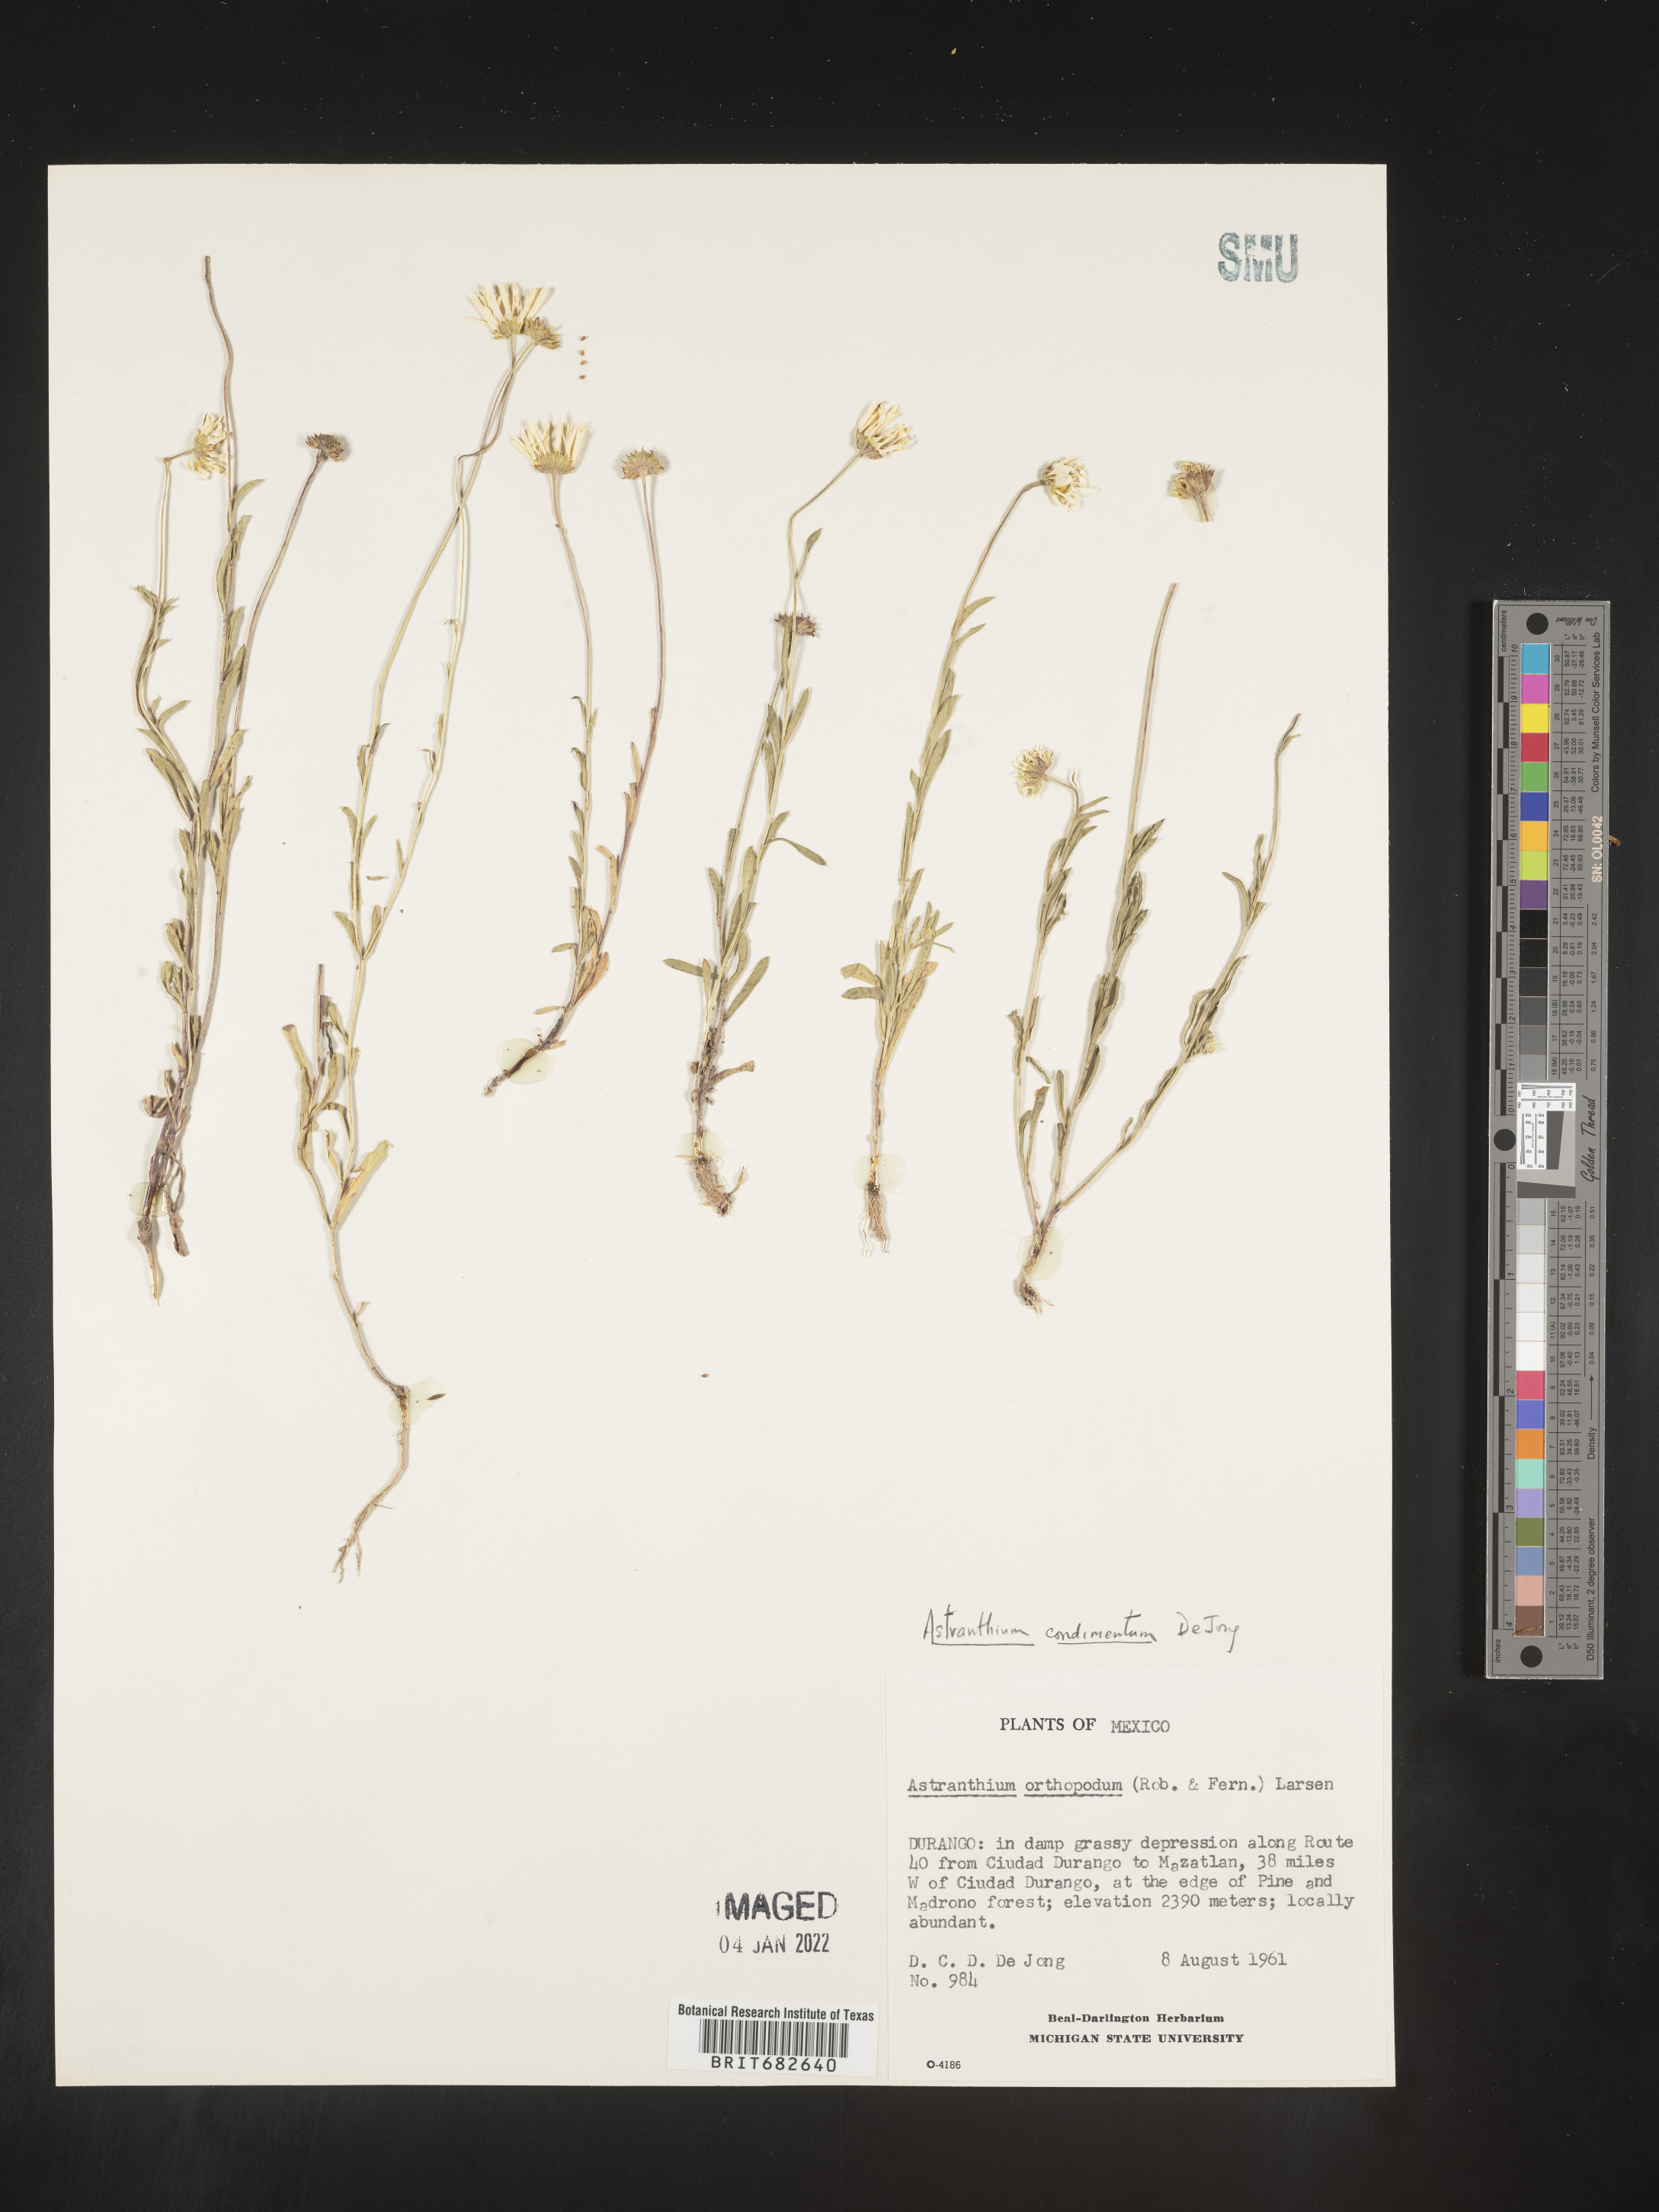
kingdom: Plantae
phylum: Tracheophyta
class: Magnoliopsida
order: Asterales
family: Asteraceae
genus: Astranthium
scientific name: Astranthium
